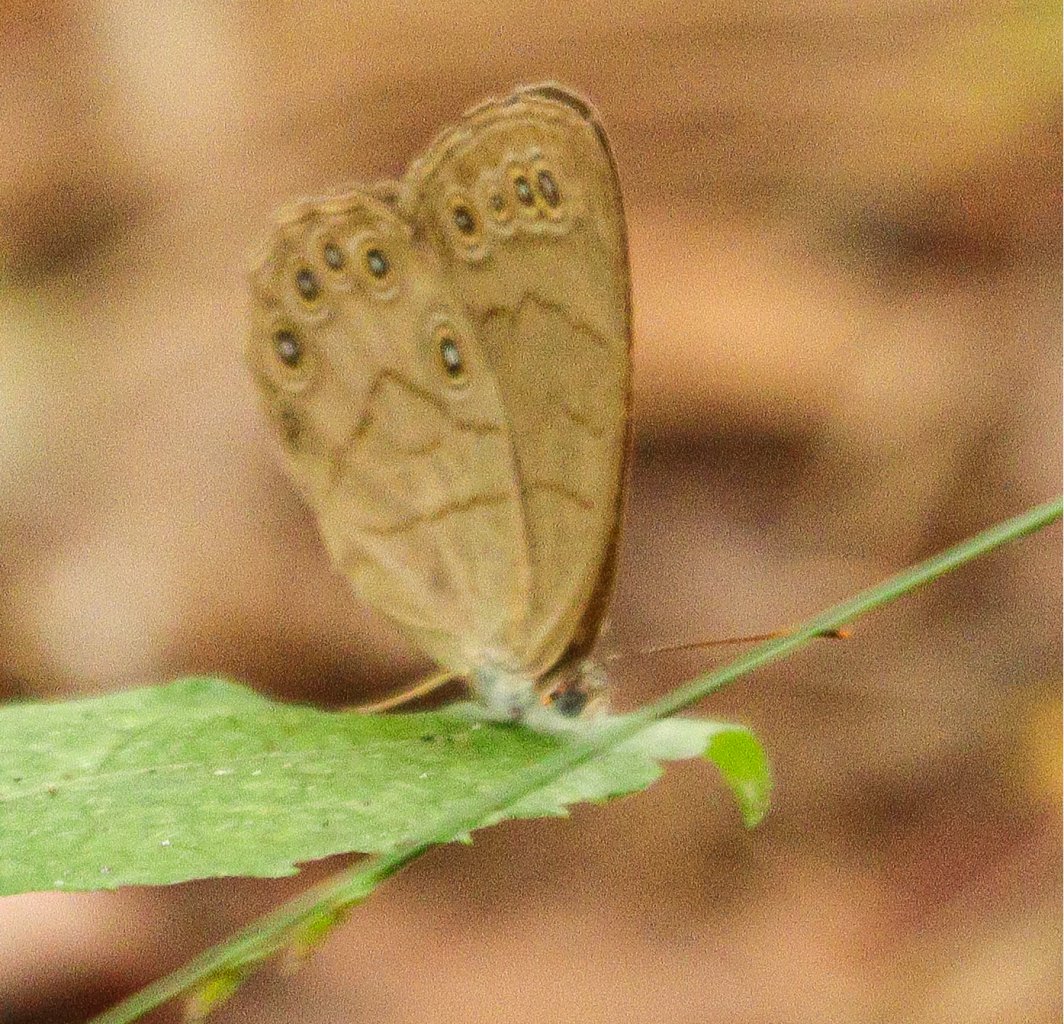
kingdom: Animalia
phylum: Arthropoda
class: Insecta
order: Lepidoptera
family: Nymphalidae
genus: Lethe
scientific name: Lethe eurydice
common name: Appalachian Eyed Brown
